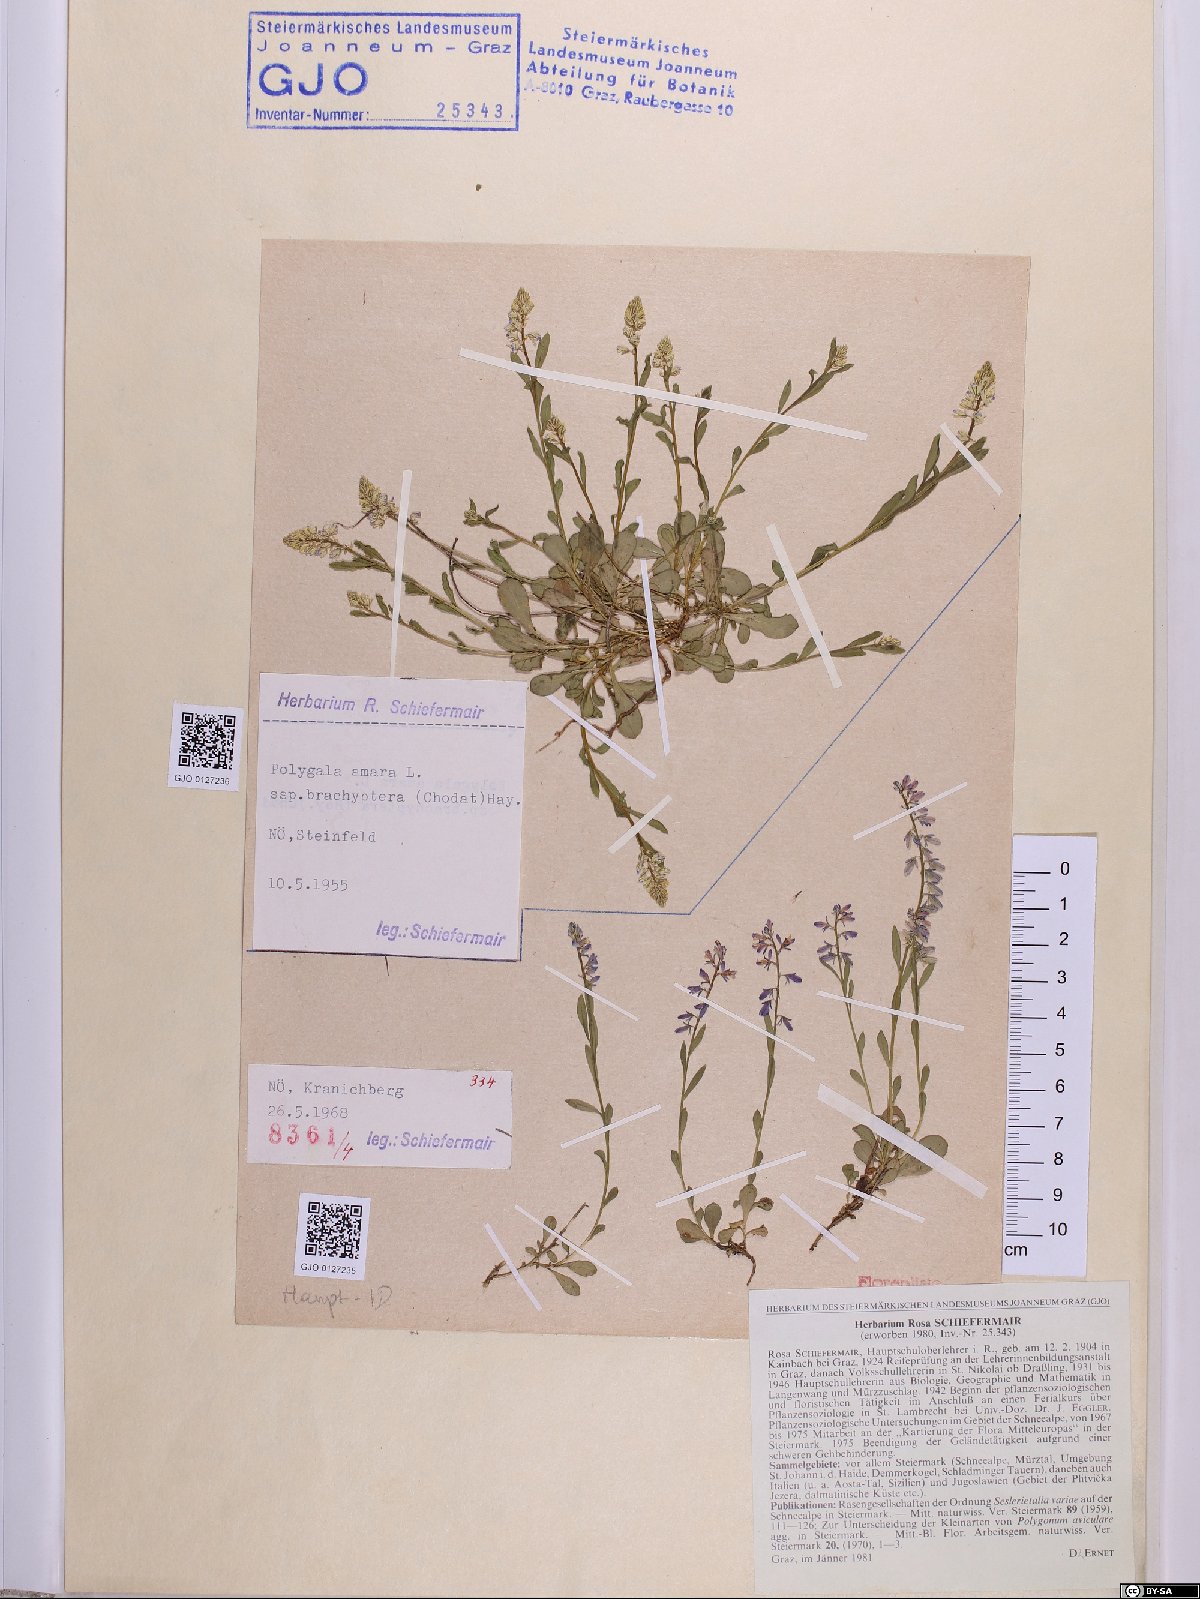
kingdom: Plantae
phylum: Tracheophyta
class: Magnoliopsida
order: Fabales
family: Polygalaceae
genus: Polygala
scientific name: Polygala amara
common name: Milkwort
